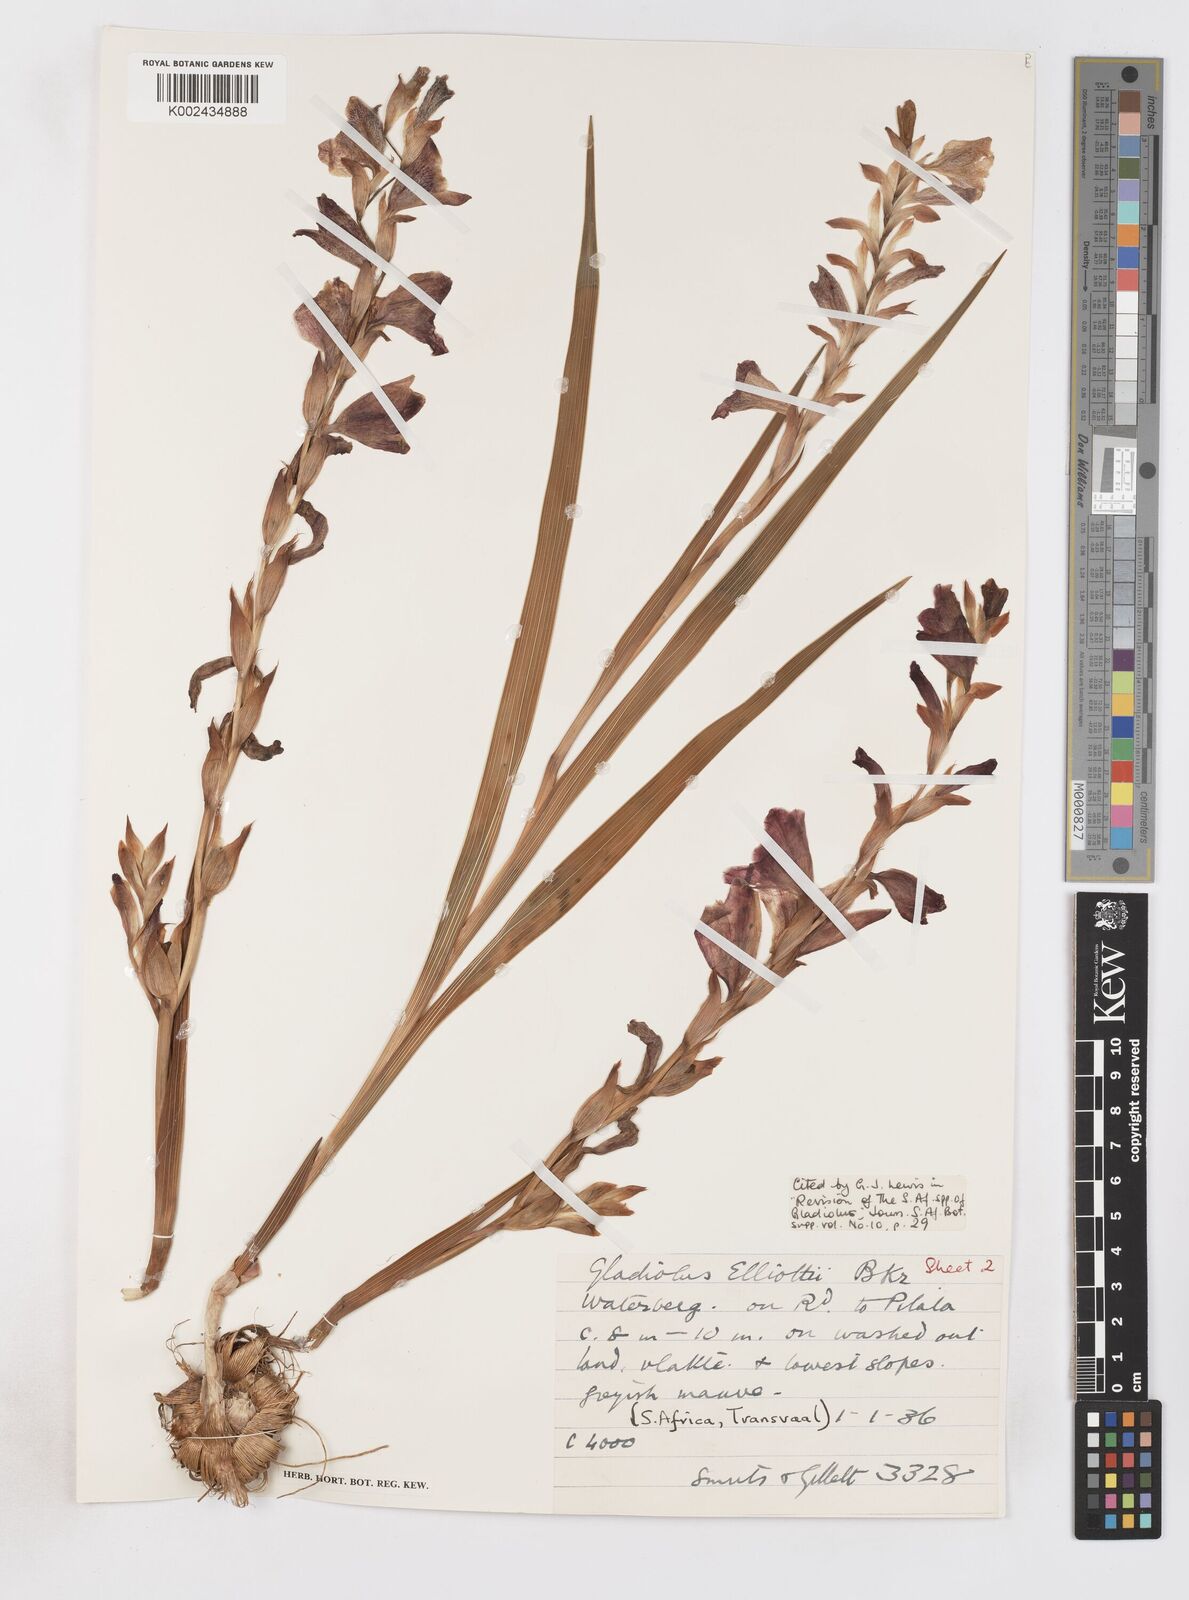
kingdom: Plantae
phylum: Tracheophyta
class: Liliopsida
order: Asparagales
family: Iridaceae
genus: Gladiolus
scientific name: Gladiolus elliotii
